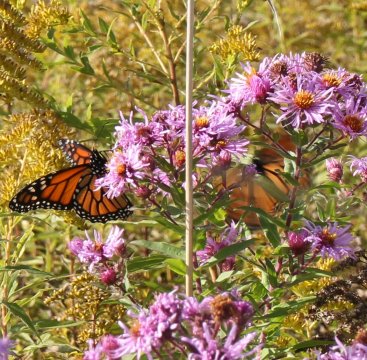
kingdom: Animalia
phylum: Arthropoda
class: Insecta
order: Lepidoptera
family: Nymphalidae
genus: Danaus
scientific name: Danaus plexippus
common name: Monarch
